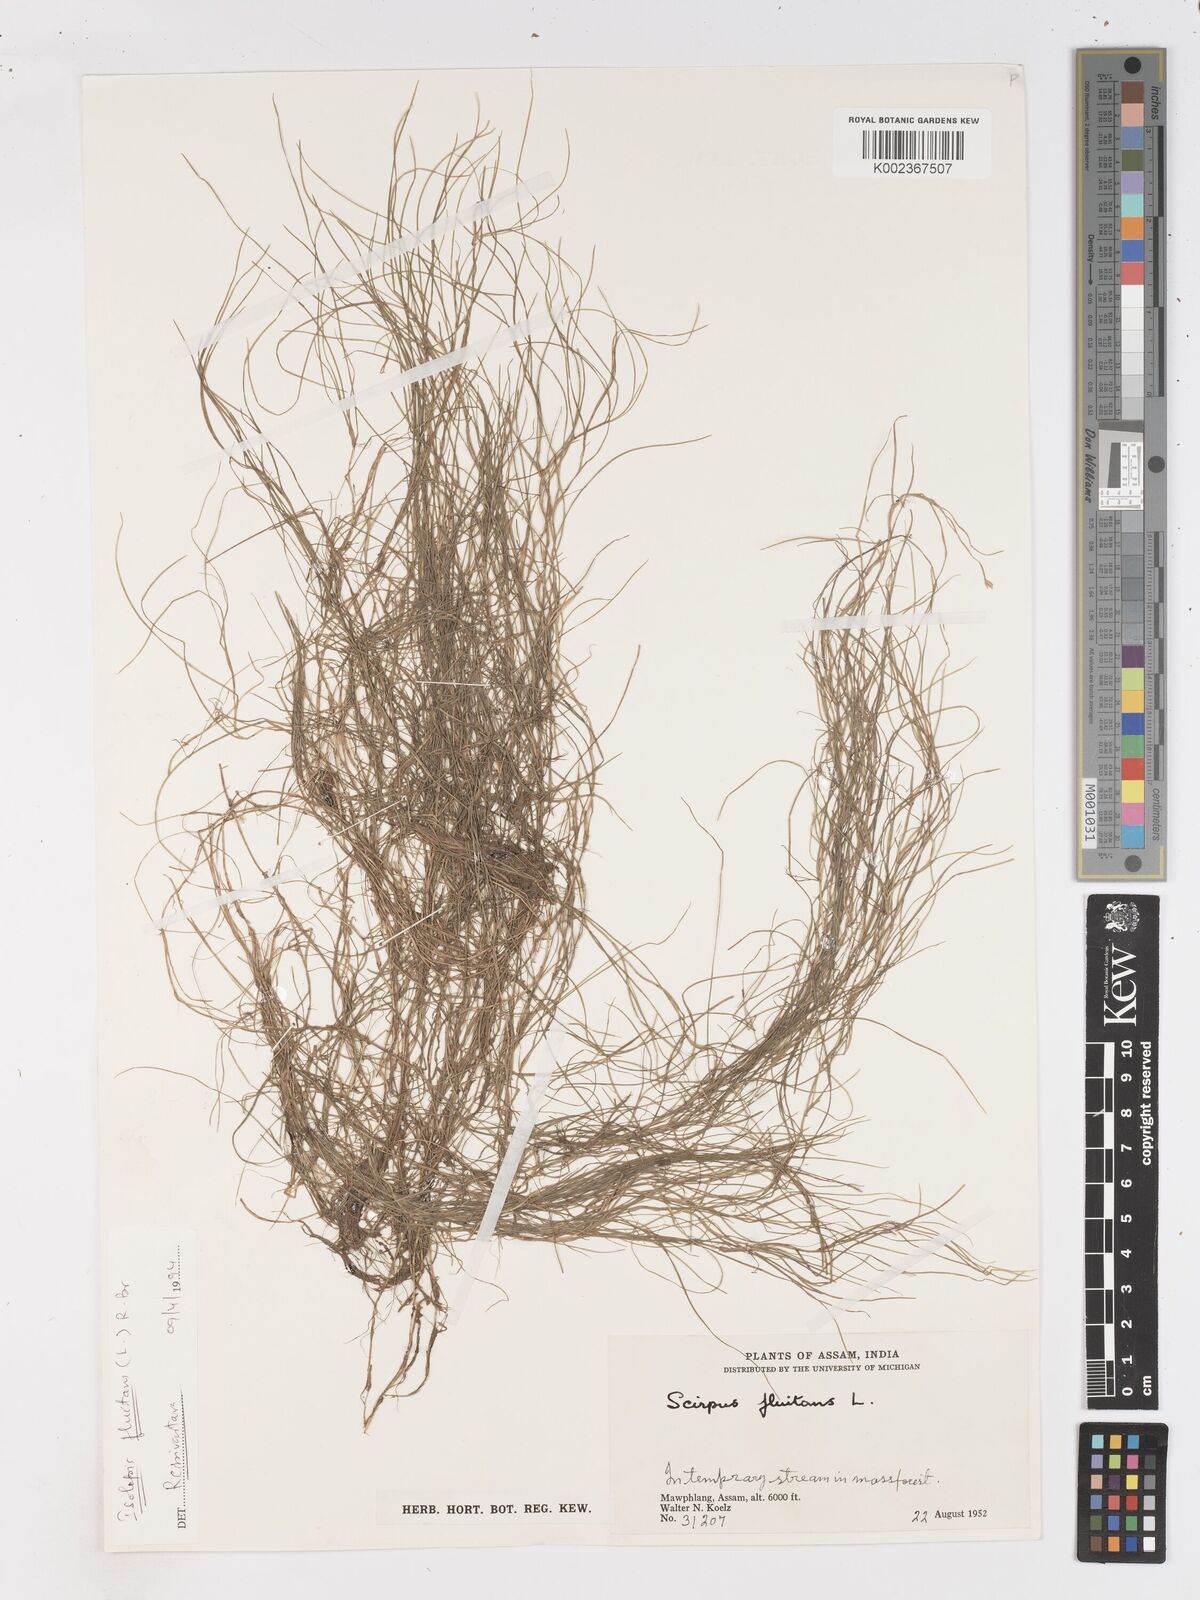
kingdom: Plantae
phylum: Tracheophyta
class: Liliopsida
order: Poales
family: Cyperaceae
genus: Isolepis
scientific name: Isolepis fluitans
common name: Floating club-rush
